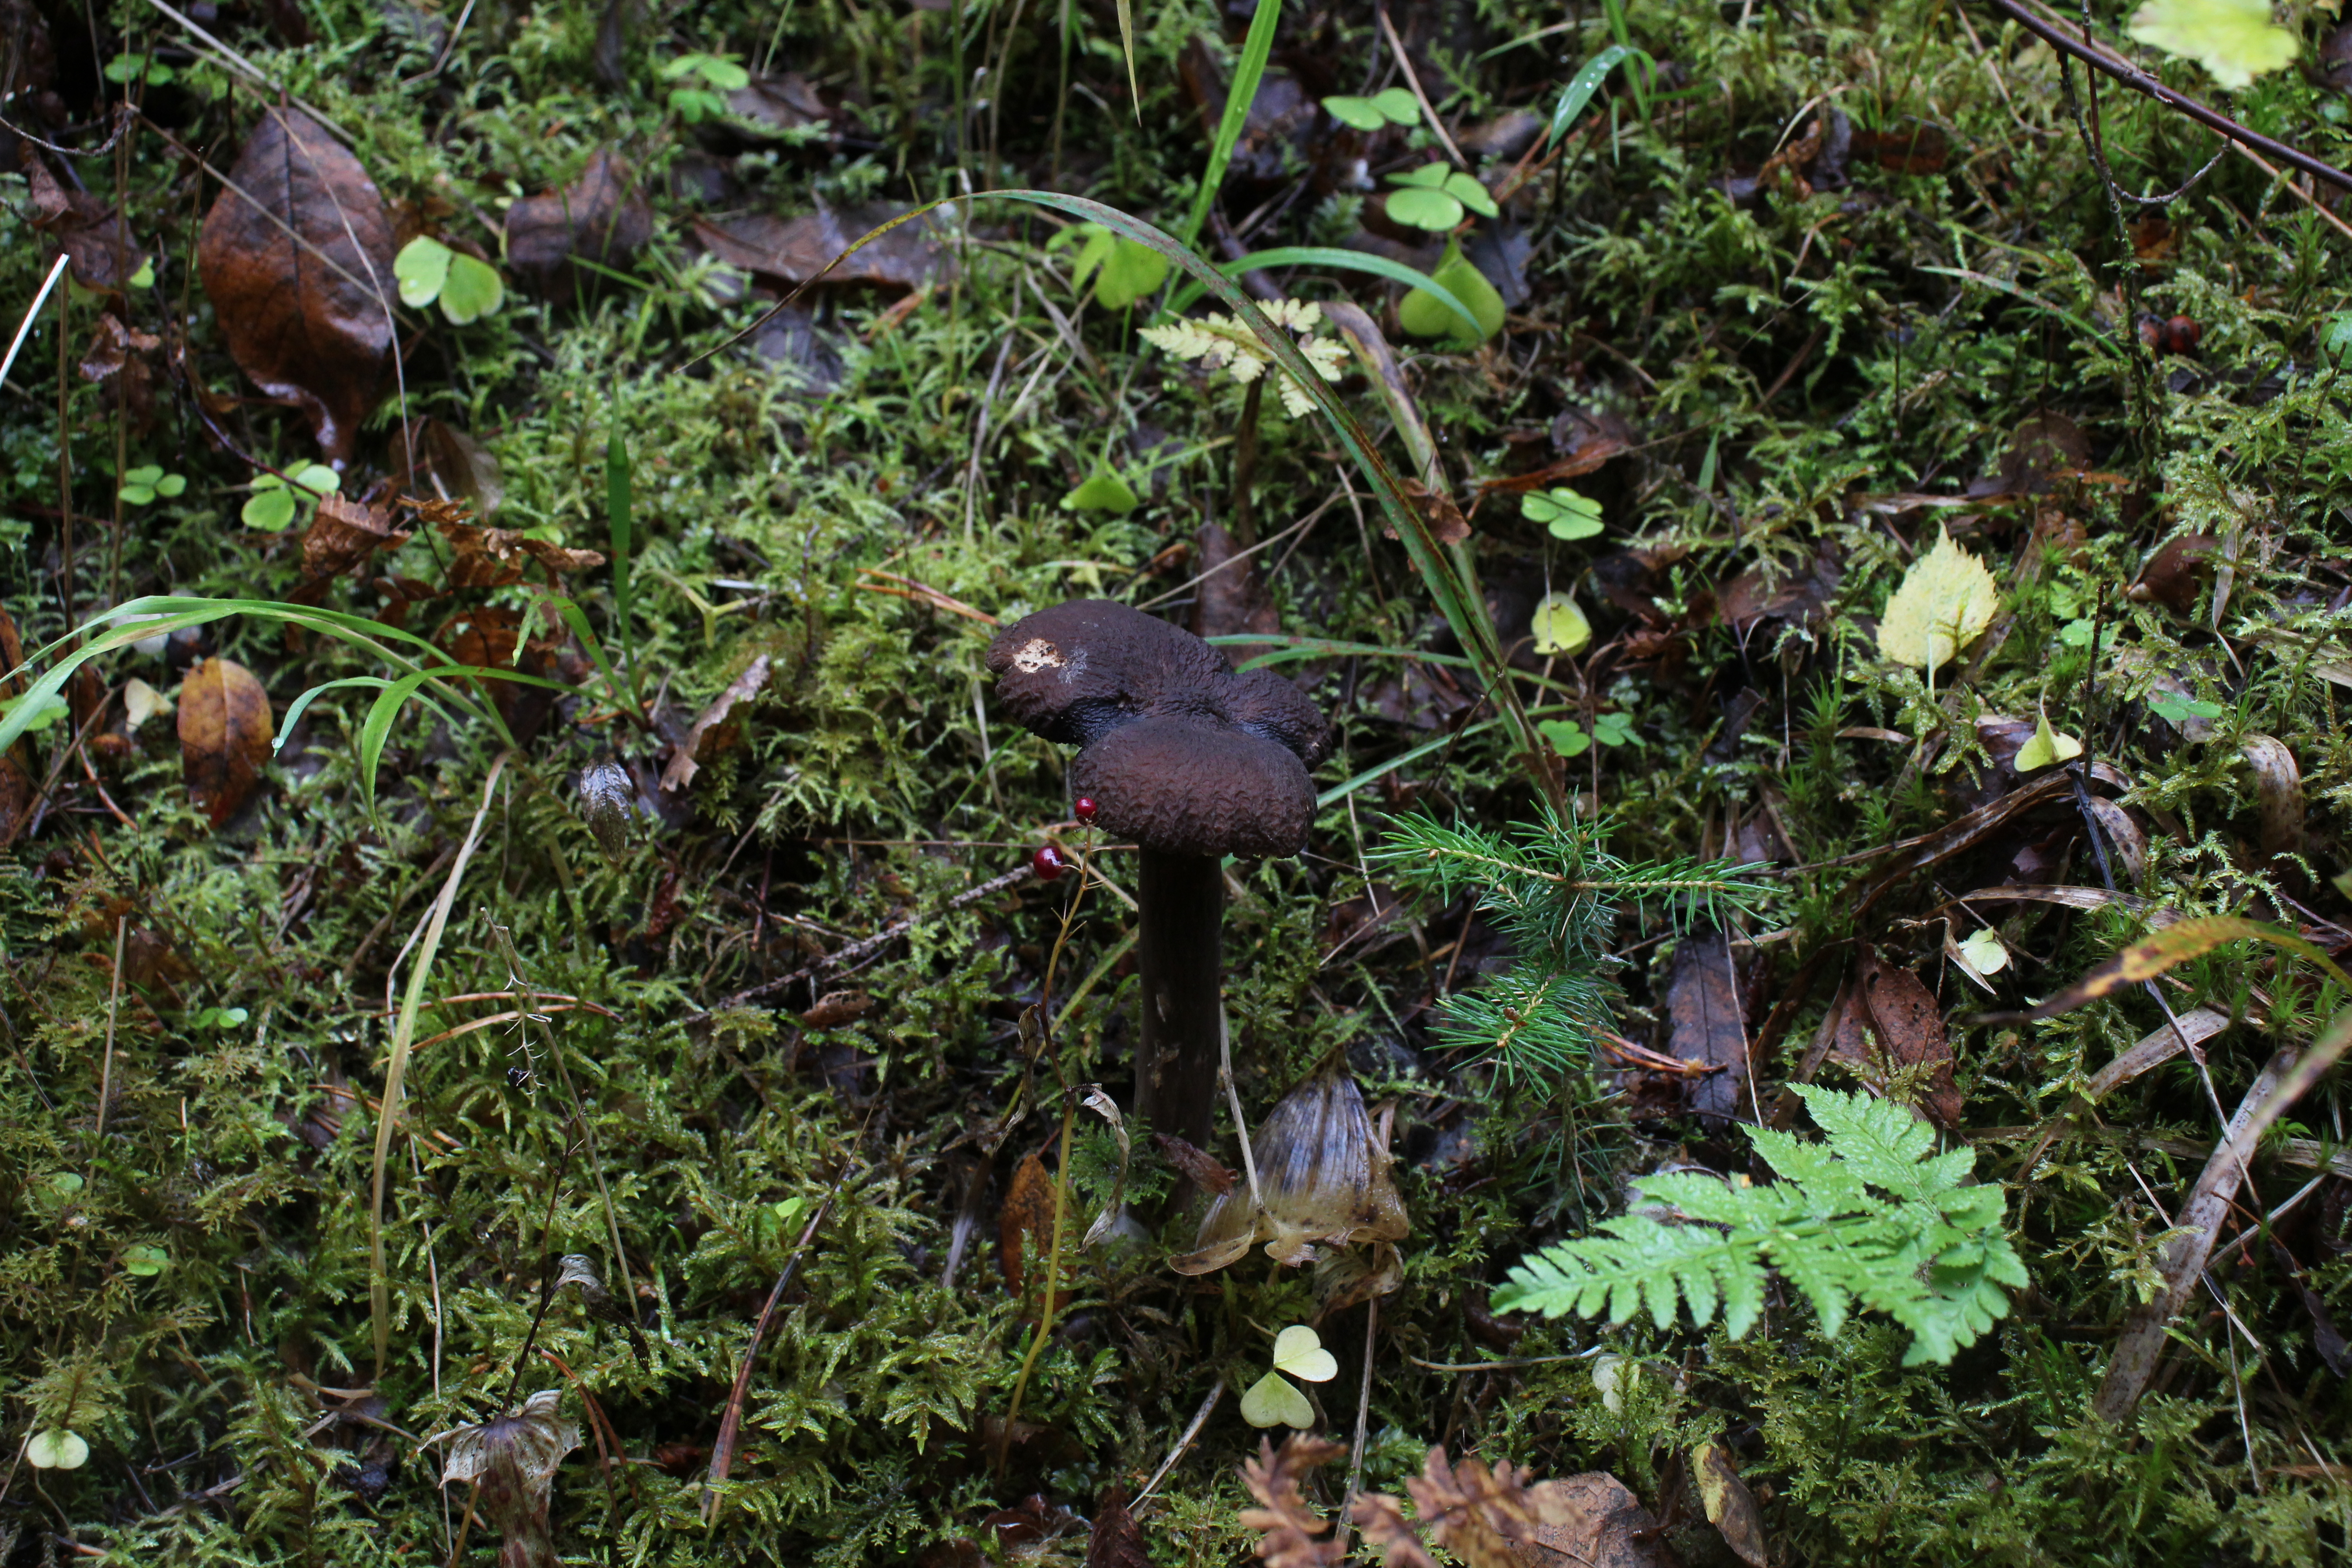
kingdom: Fungi
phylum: Basidiomycota
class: Agaricomycetes
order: Russulales
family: Russulaceae
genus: Lactarius
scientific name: Lactarius lignyotus
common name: Velvet milkcap
